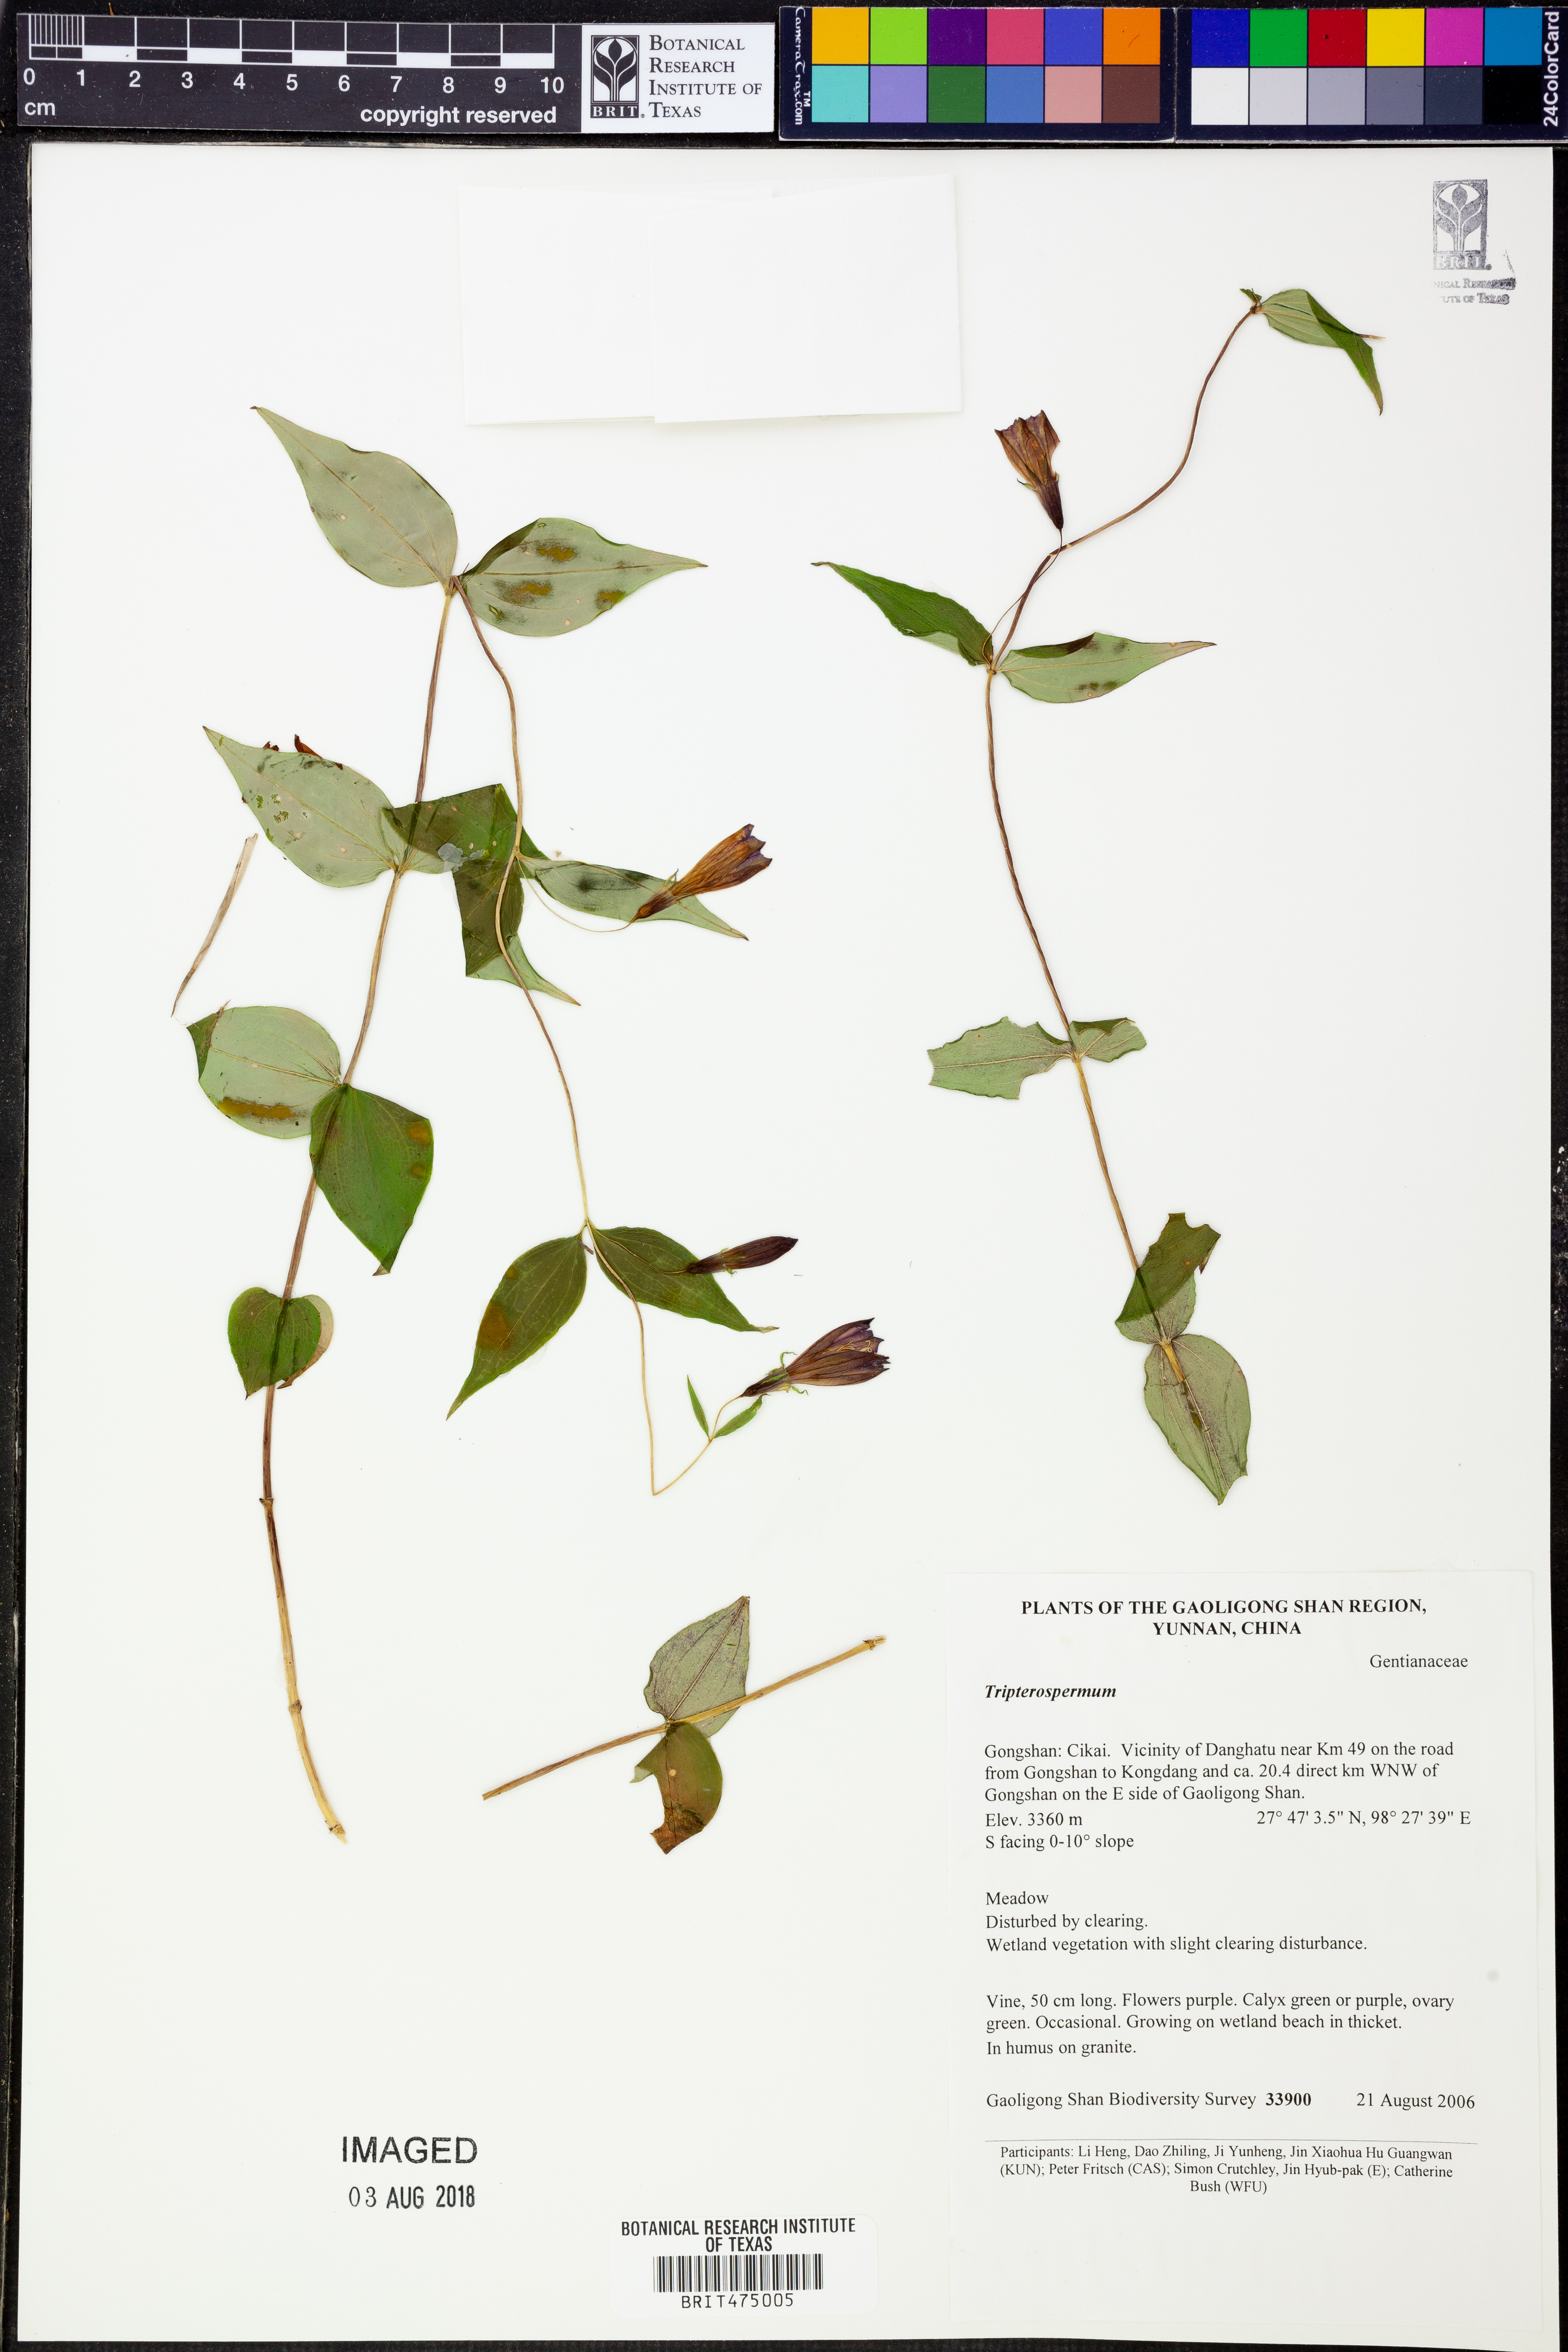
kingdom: Plantae
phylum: Tracheophyta
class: Magnoliopsida
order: Gentianales
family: Gentianaceae
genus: Tripterospermum
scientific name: Tripterospermum
